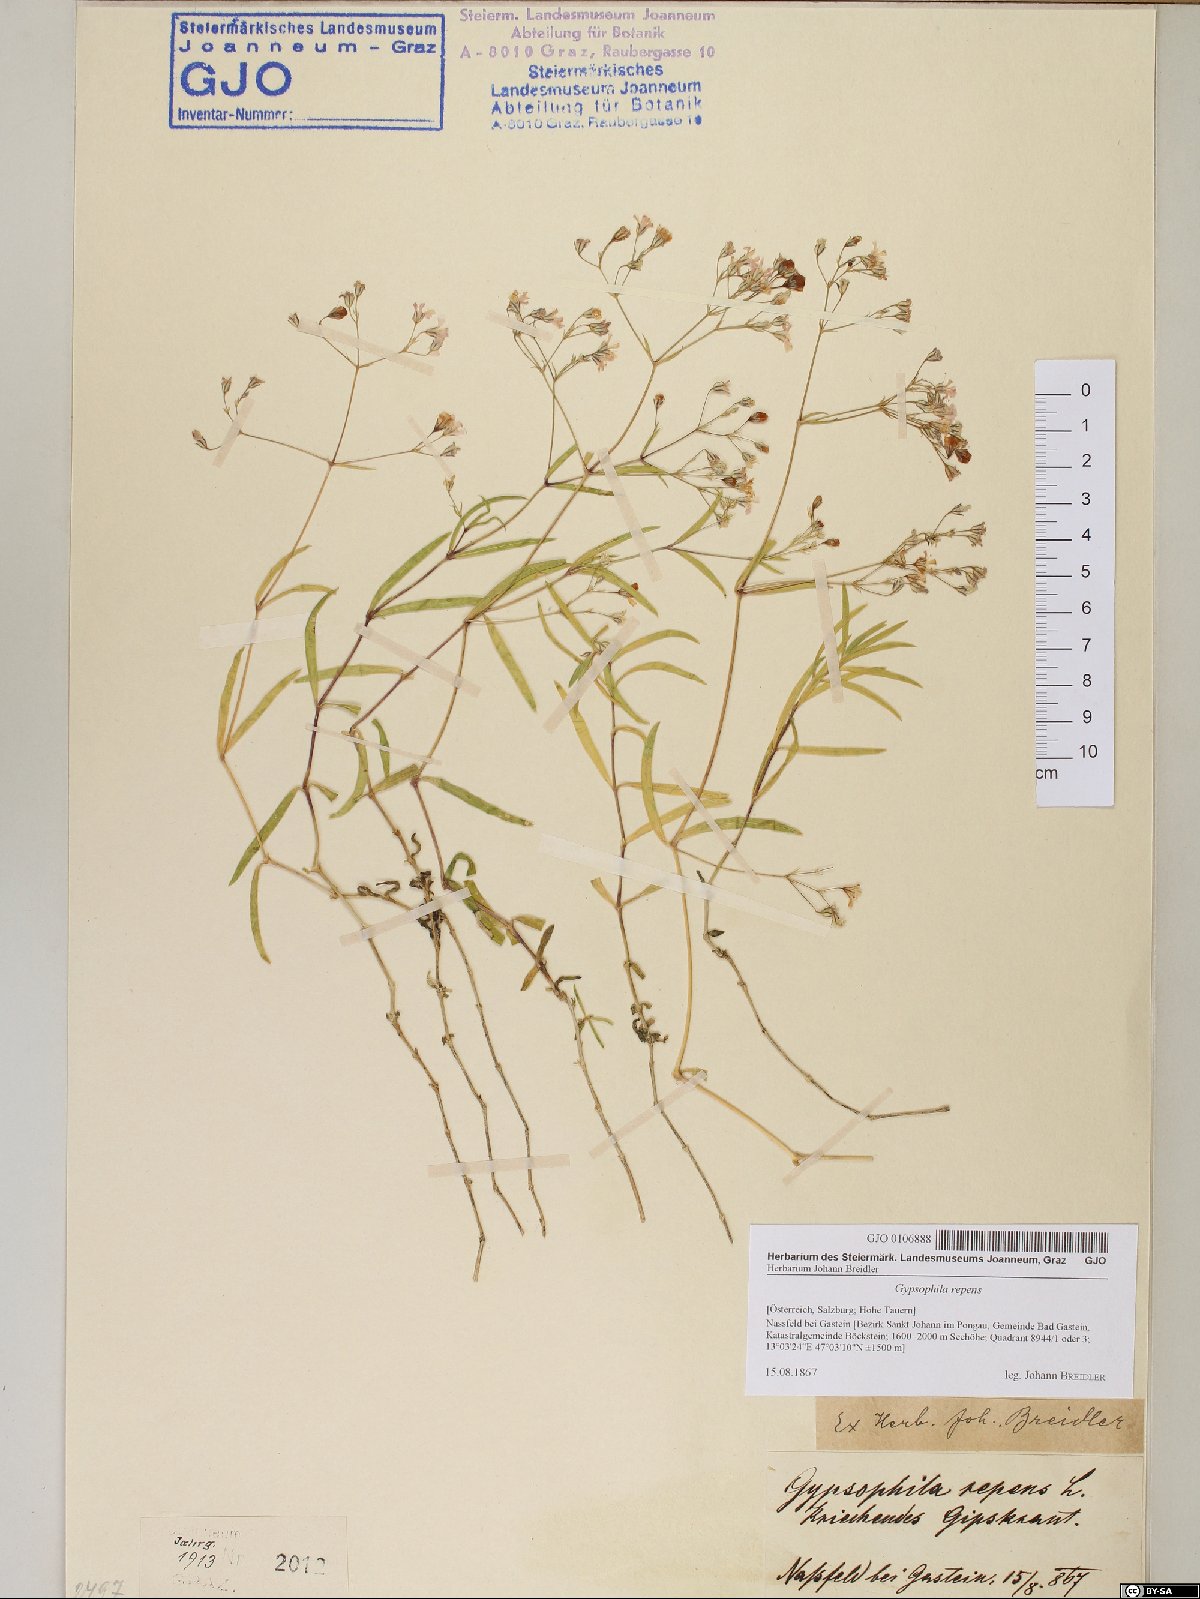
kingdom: Plantae
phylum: Tracheophyta
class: Magnoliopsida
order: Caryophyllales
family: Caryophyllaceae
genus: Gypsophila
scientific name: Gypsophila repens
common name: Creeping baby's-breath
